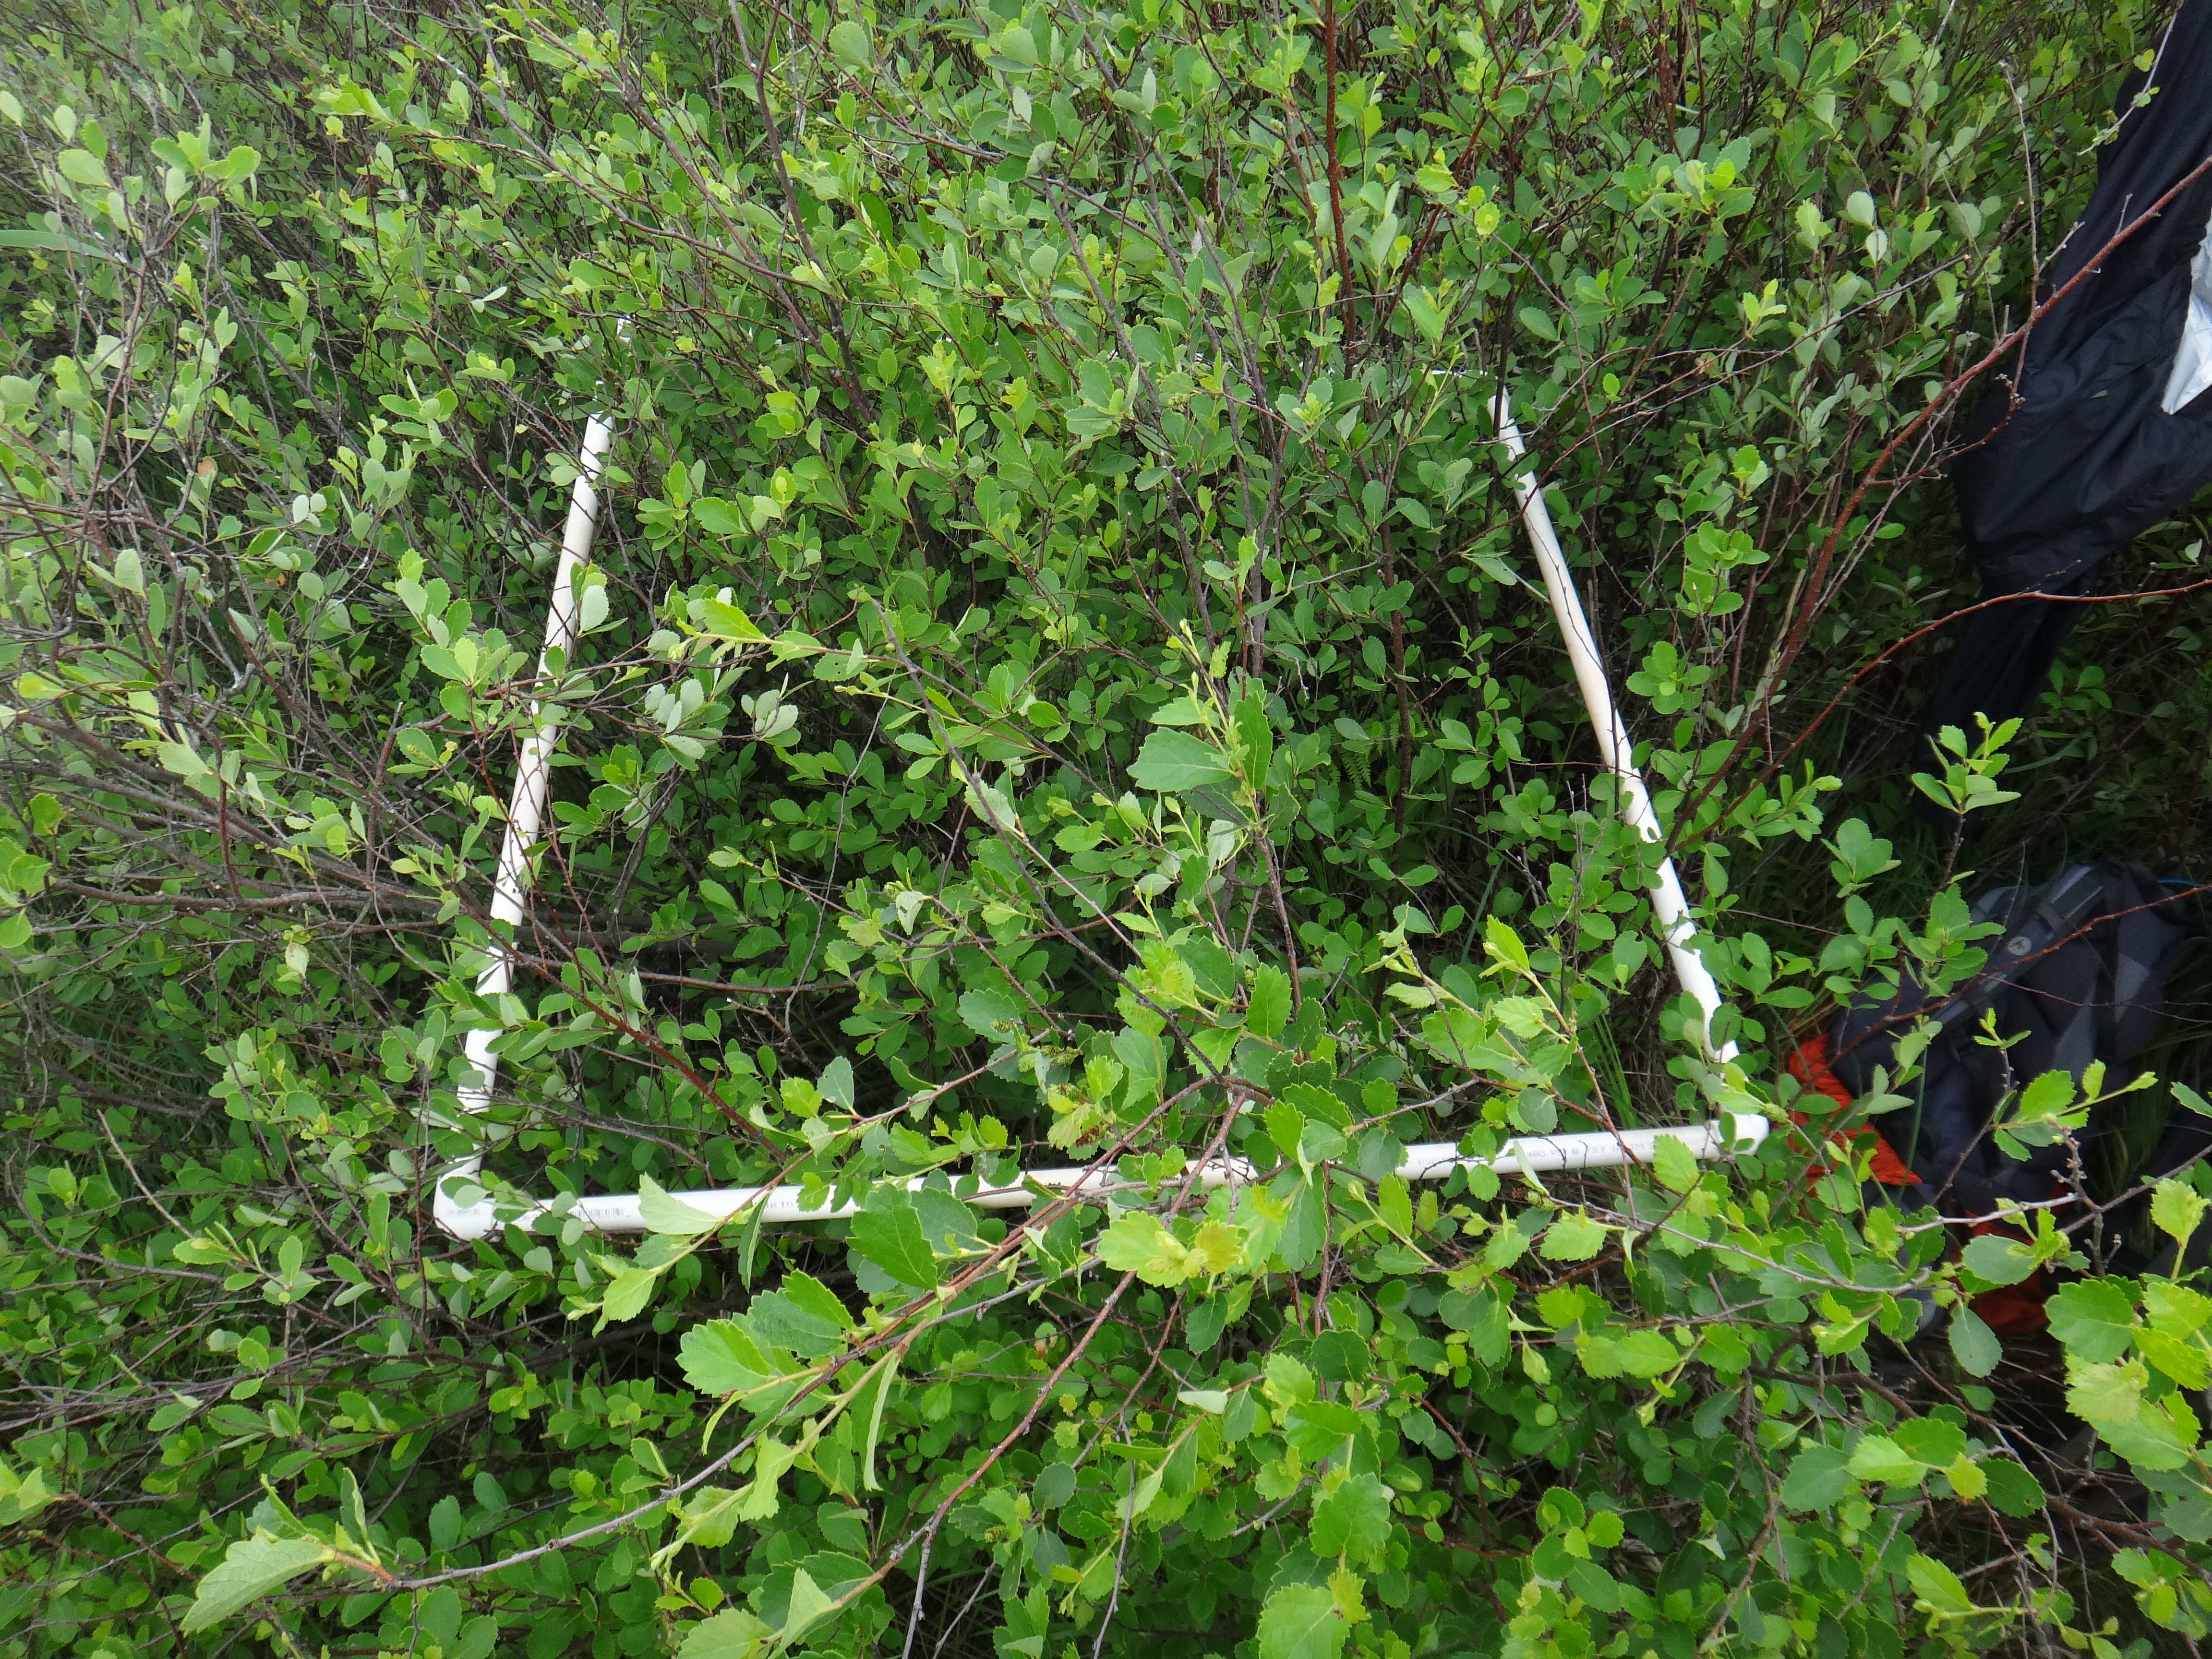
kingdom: Plantae
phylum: Tracheophyta
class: Liliopsida
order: Poales
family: Cyperaceae
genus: Carex
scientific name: Carex sartwellii
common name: Sartwell's sedge
